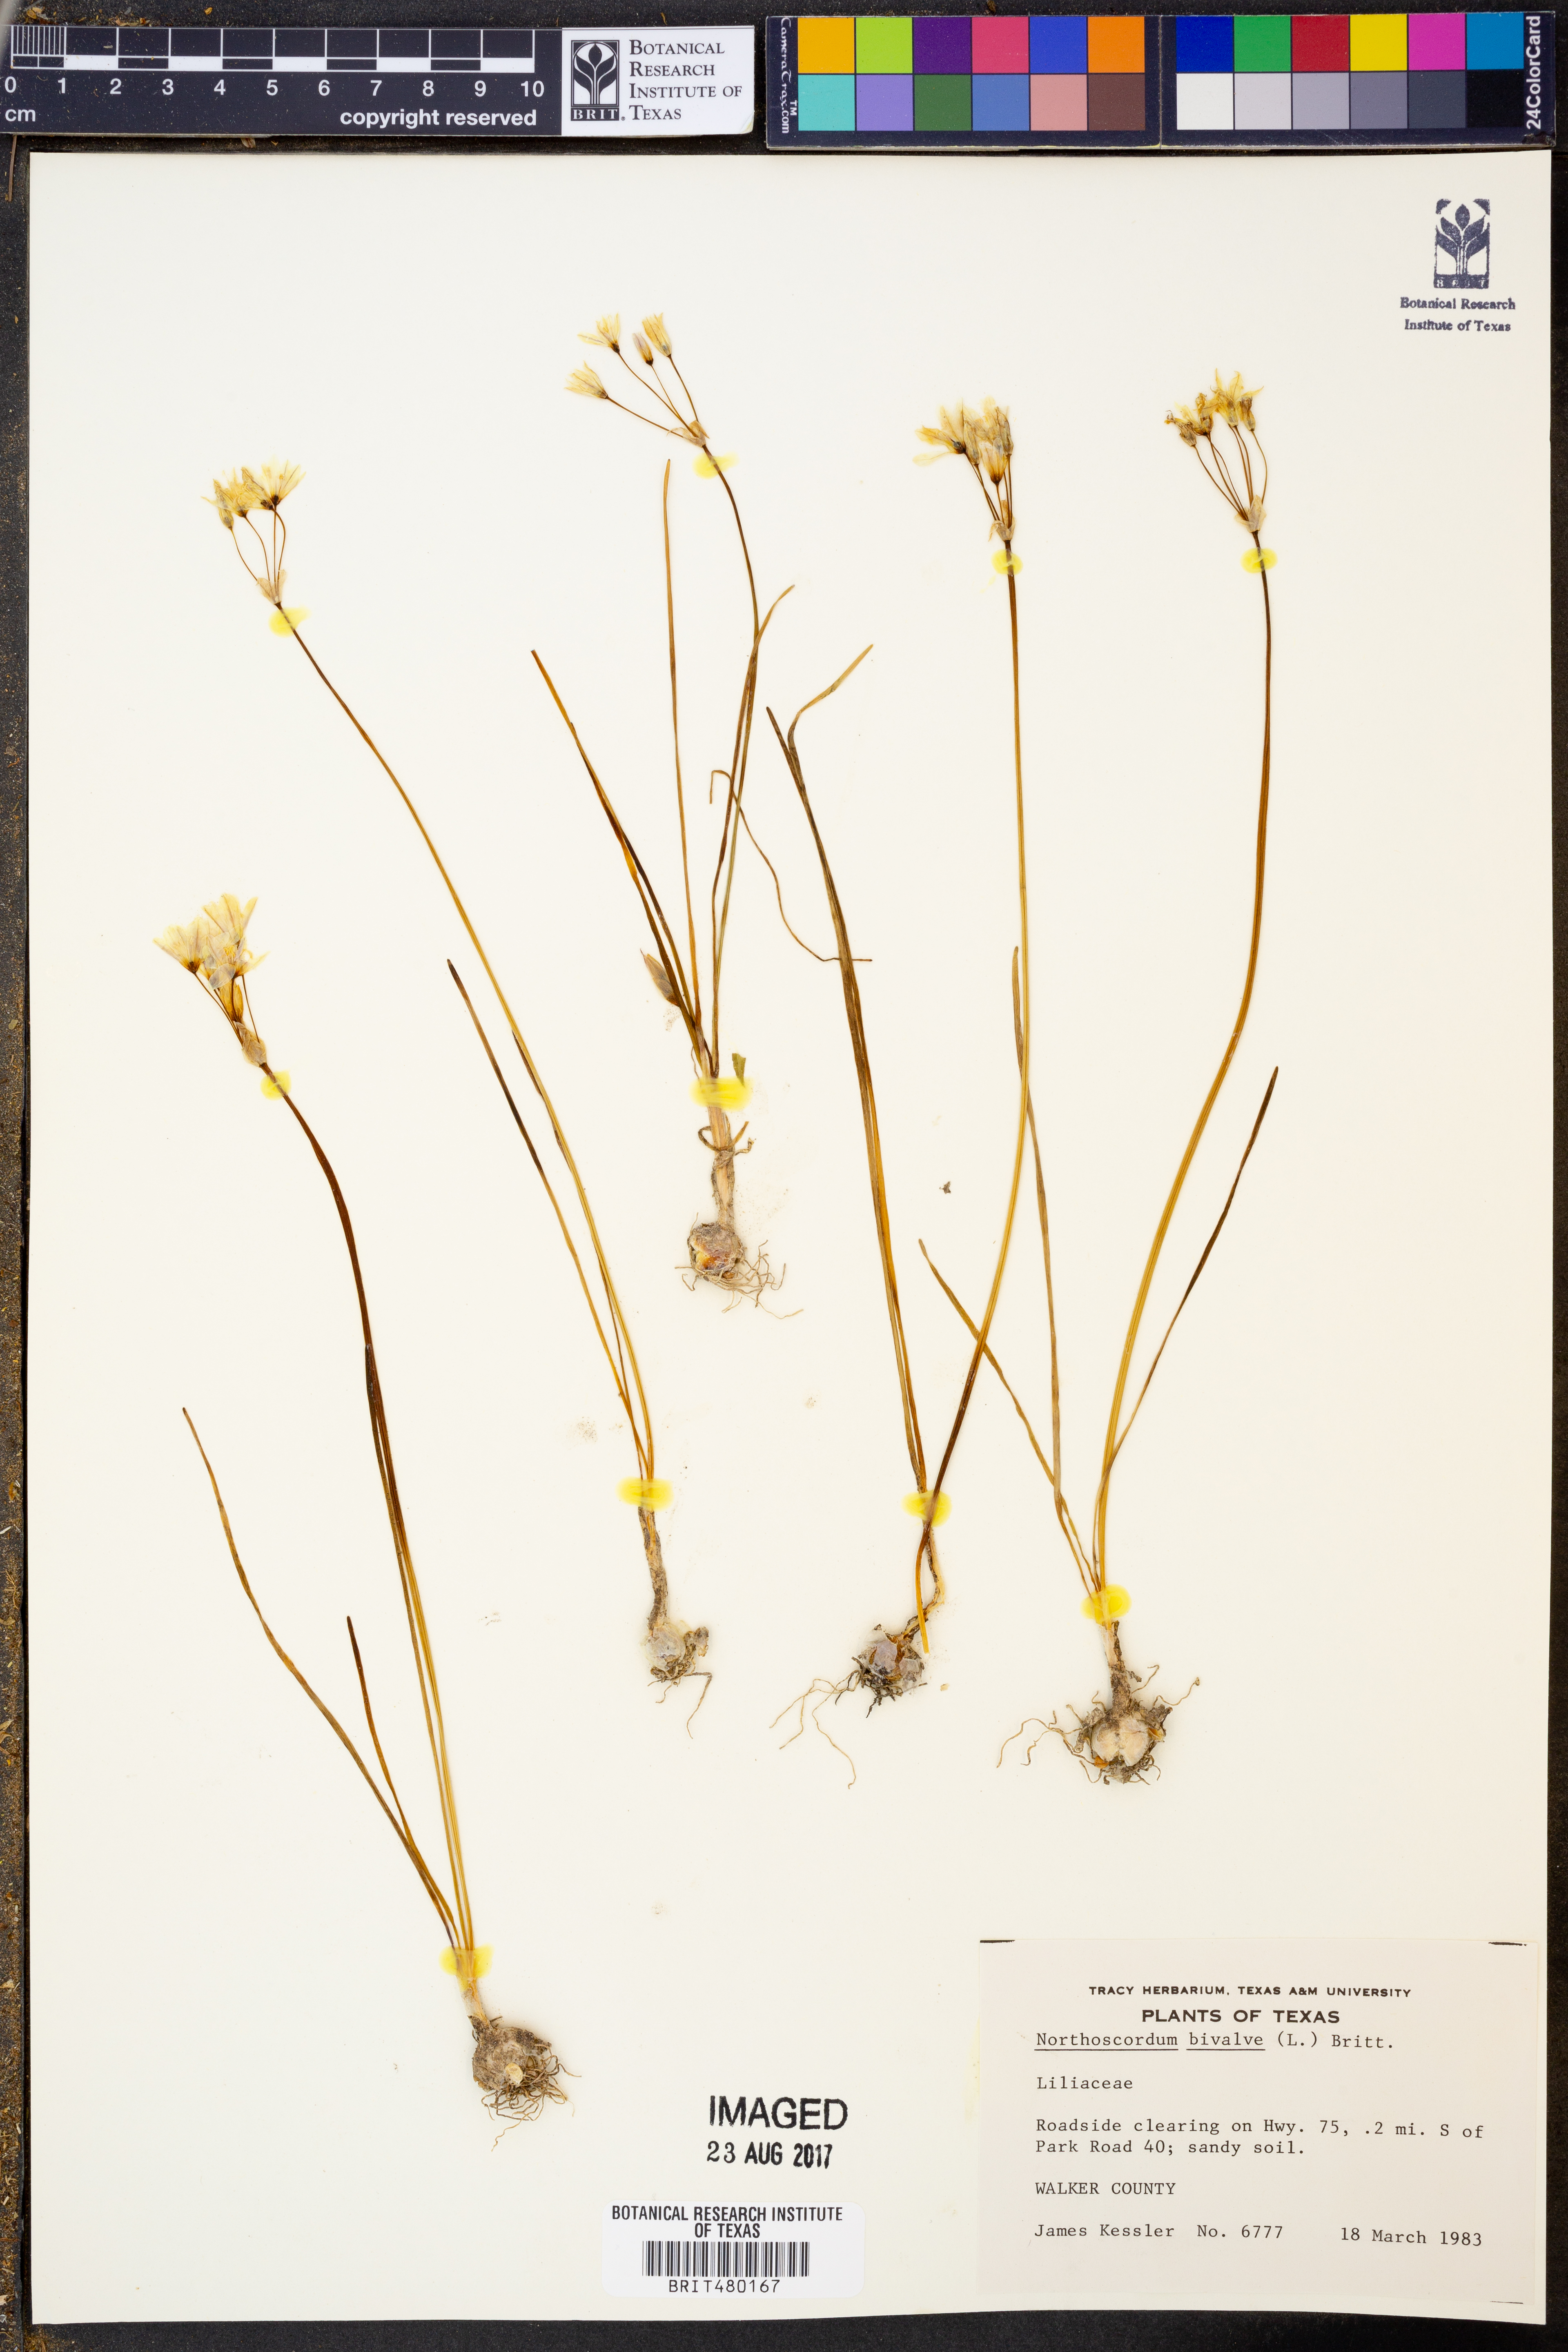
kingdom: Plantae
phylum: Tracheophyta
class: Liliopsida
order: Asparagales
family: Amaryllidaceae
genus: Nothoscordum
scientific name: Nothoscordum bivalve
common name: Crow-poison
